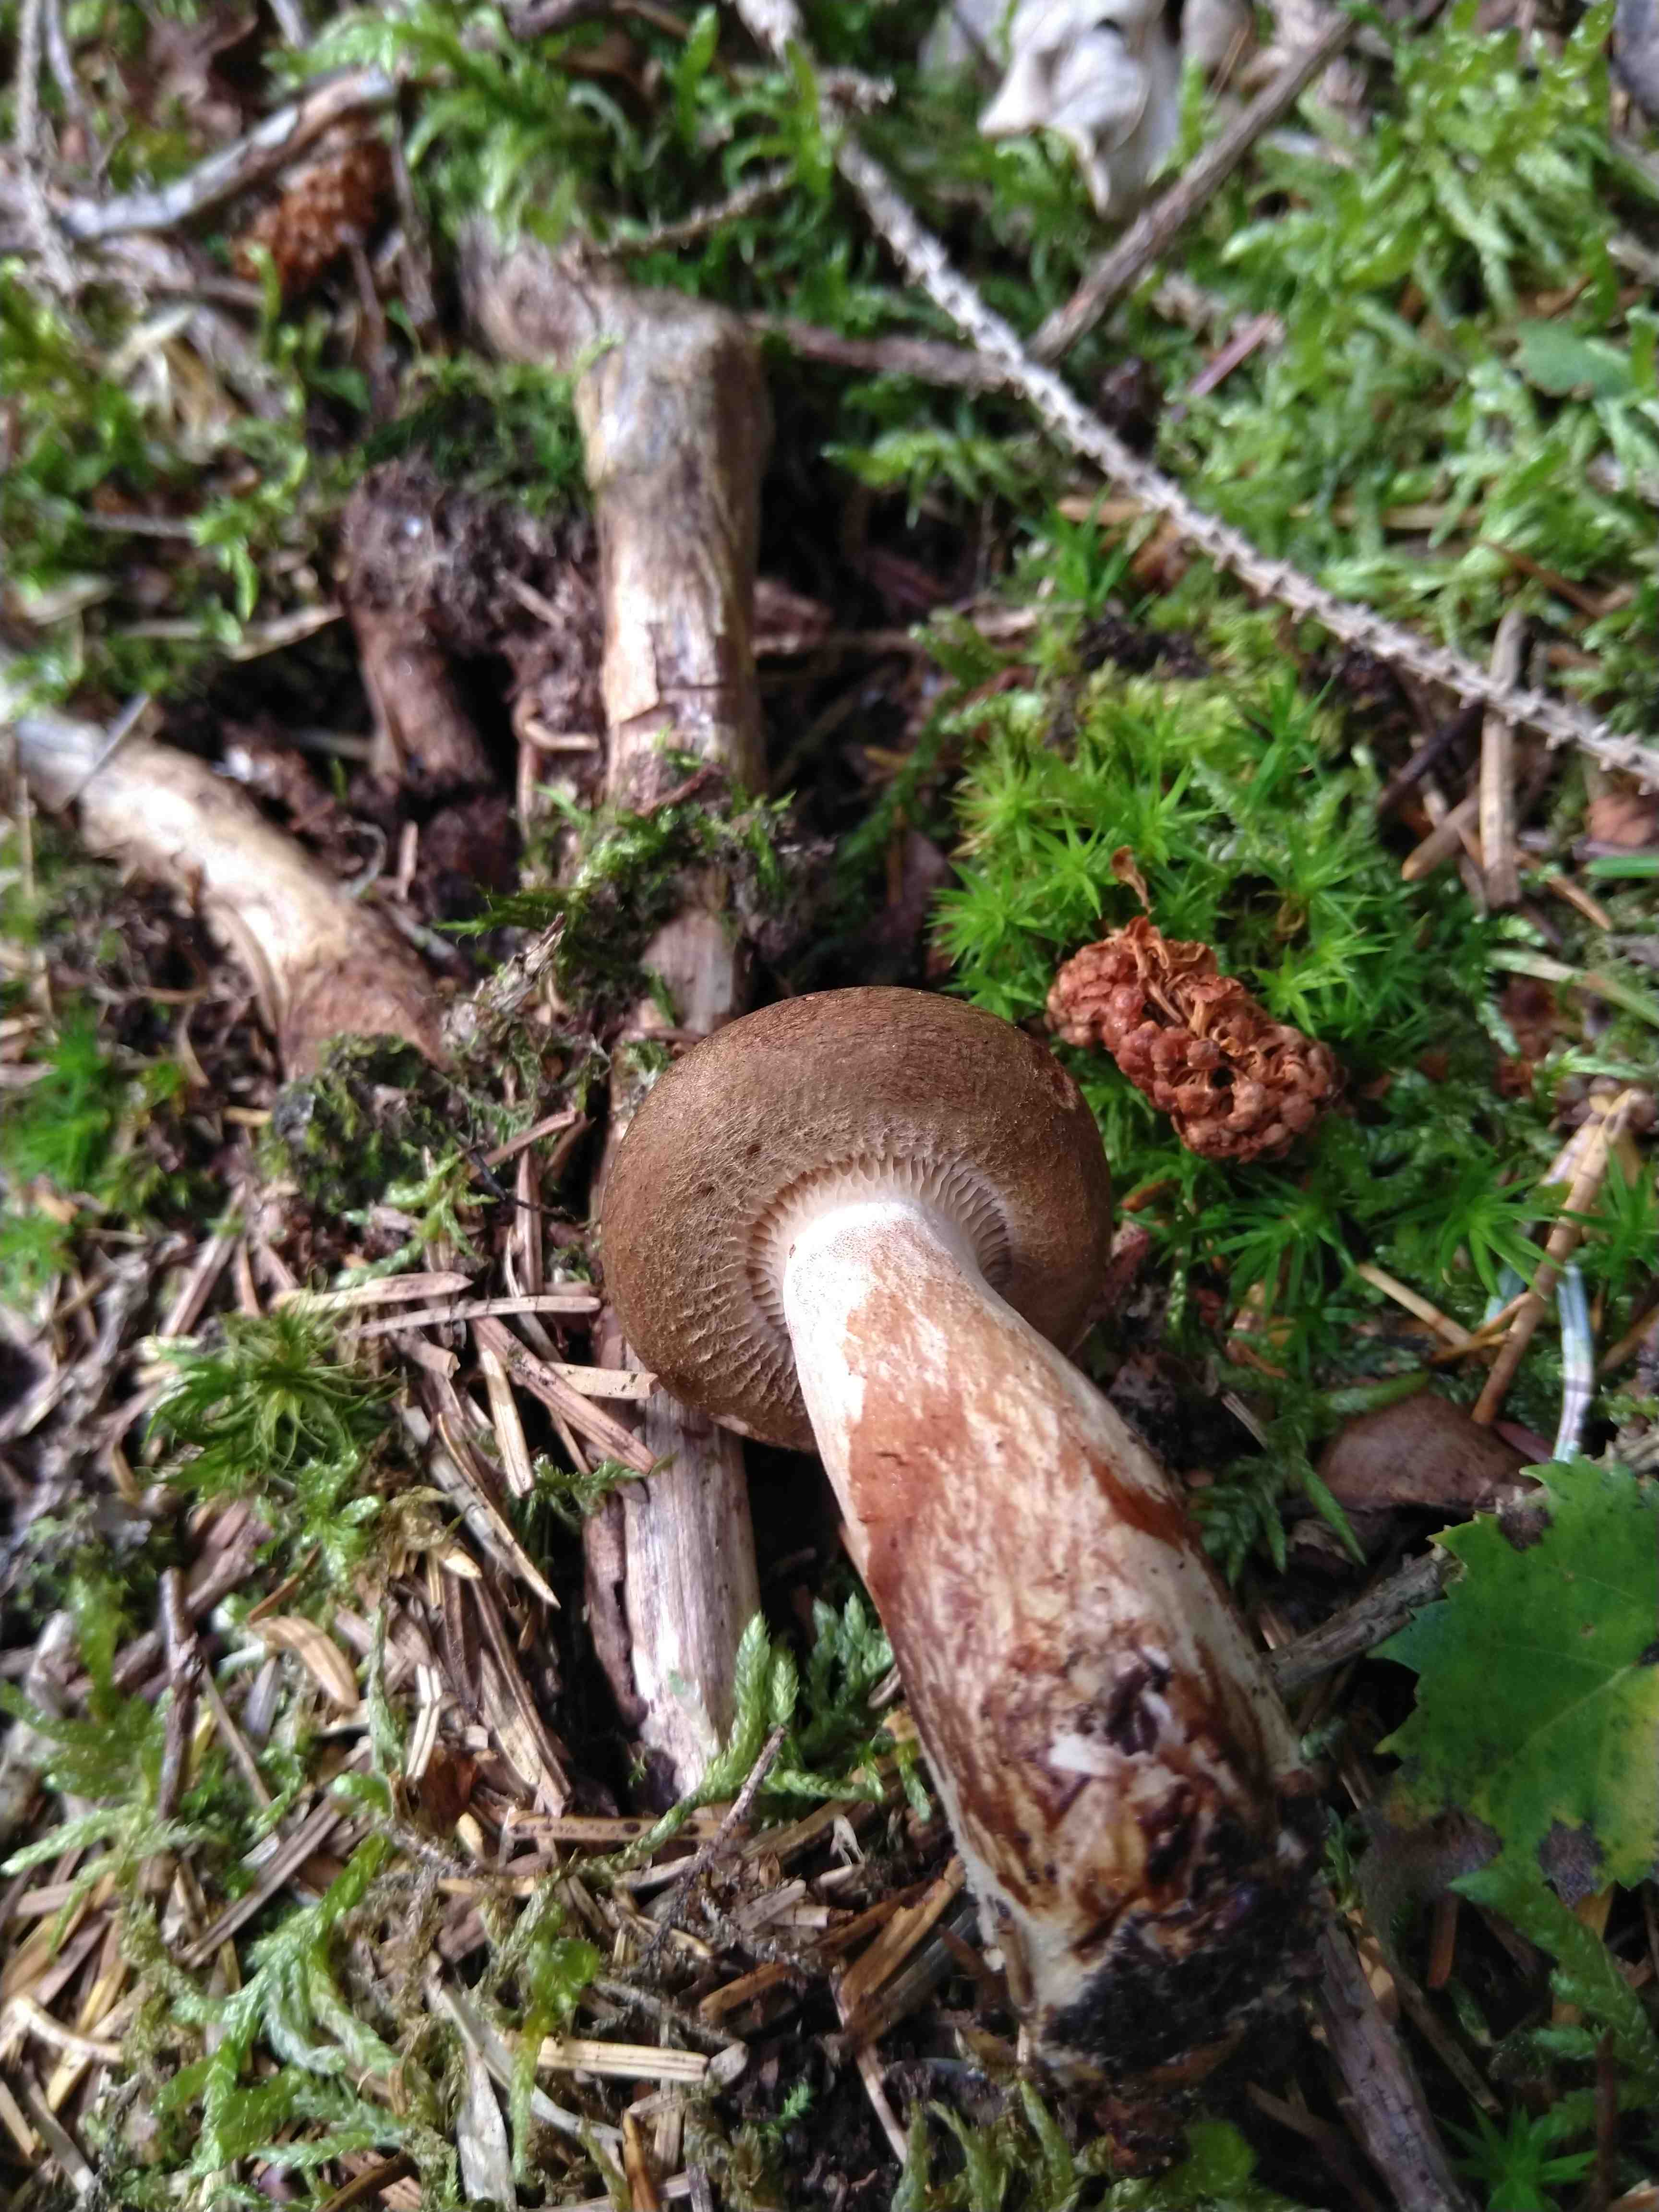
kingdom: Fungi
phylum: Basidiomycota
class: Agaricomycetes
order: Boletales
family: Paxillaceae
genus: Paxillus
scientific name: Paxillus involutus
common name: almindelig netbladhat
